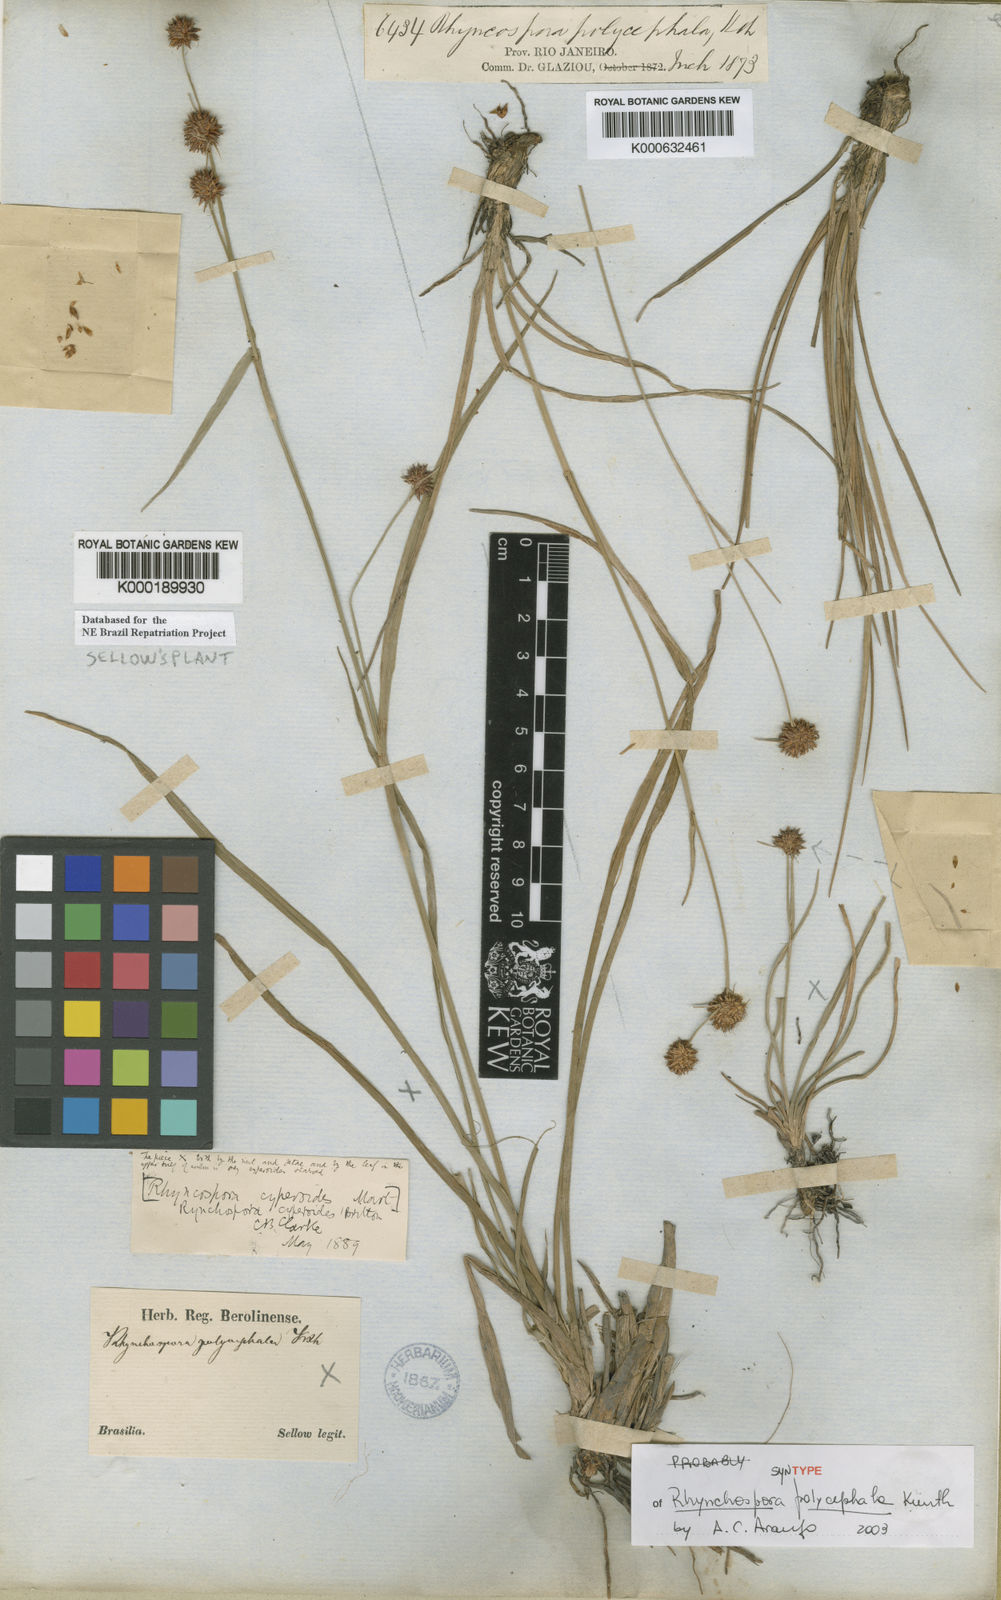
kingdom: Plantae
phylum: Tracheophyta
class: Liliopsida
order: Poales
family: Cyperaceae
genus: Rhynchospora
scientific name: Rhynchospora holoschoenoides
